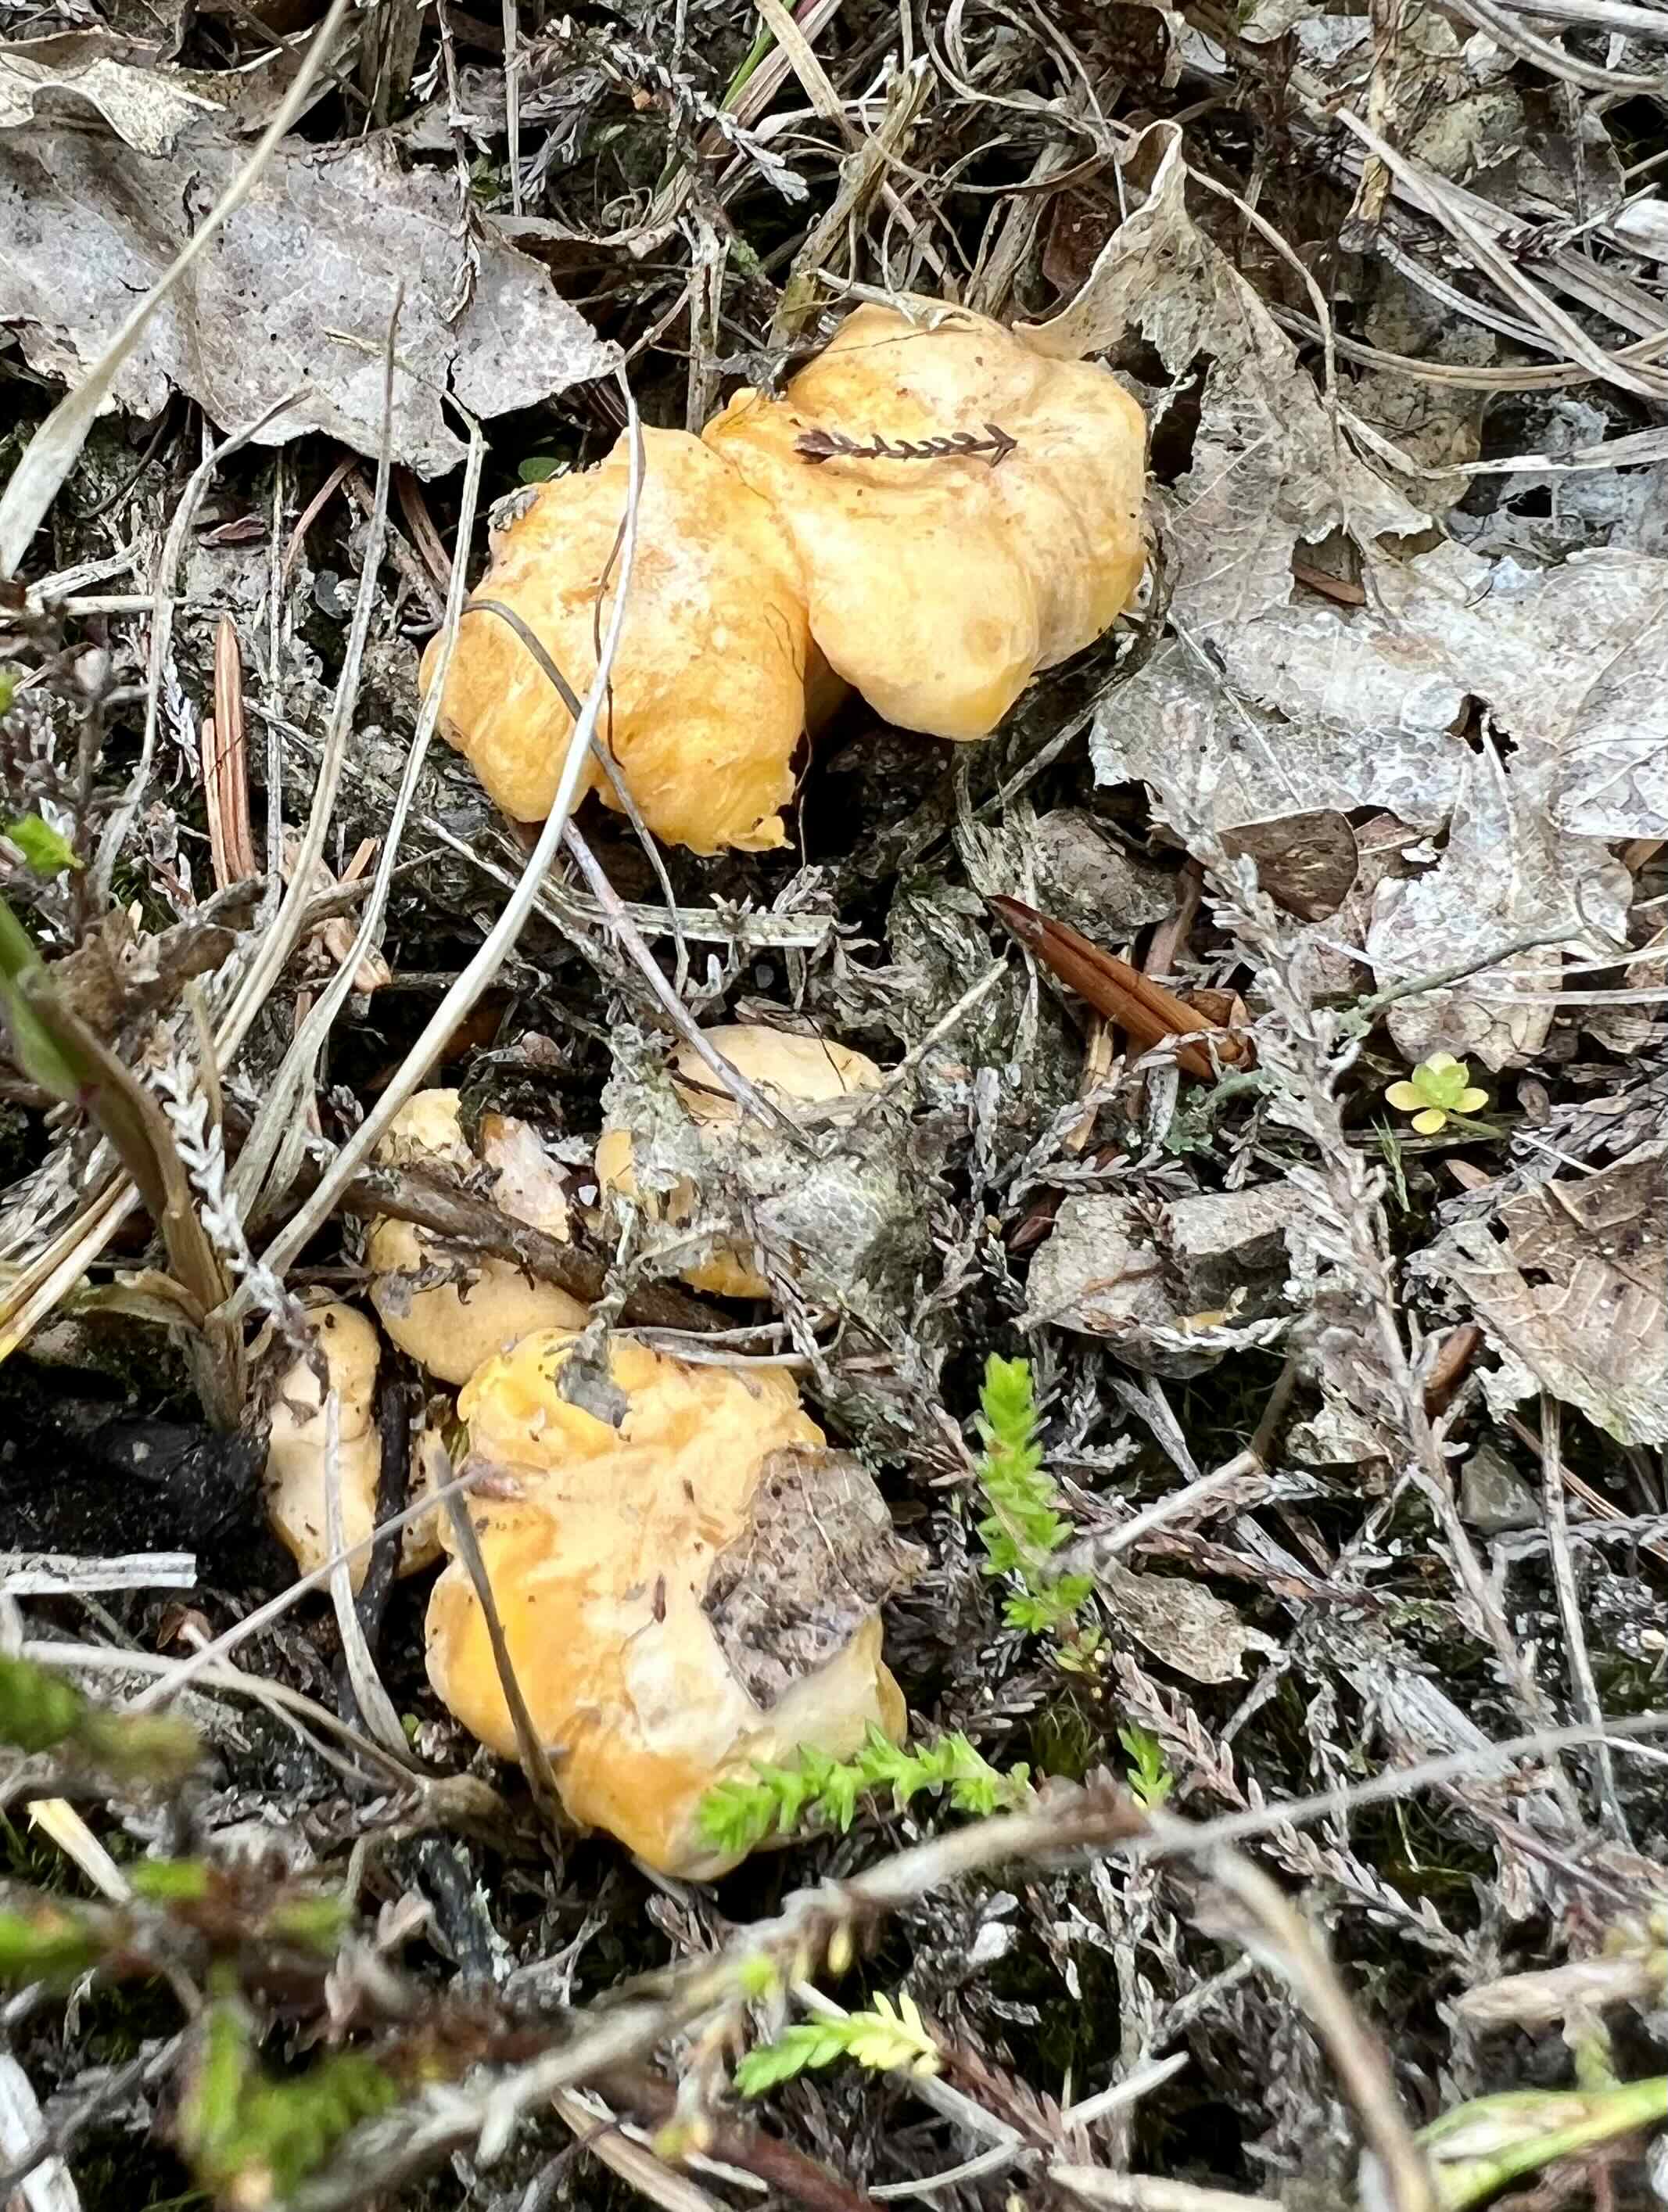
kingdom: Fungi
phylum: Basidiomycota
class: Agaricomycetes
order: Cantharellales
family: Hydnaceae
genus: Cantharellus
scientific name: Cantharellus cibarius
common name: almindelig kantarel
